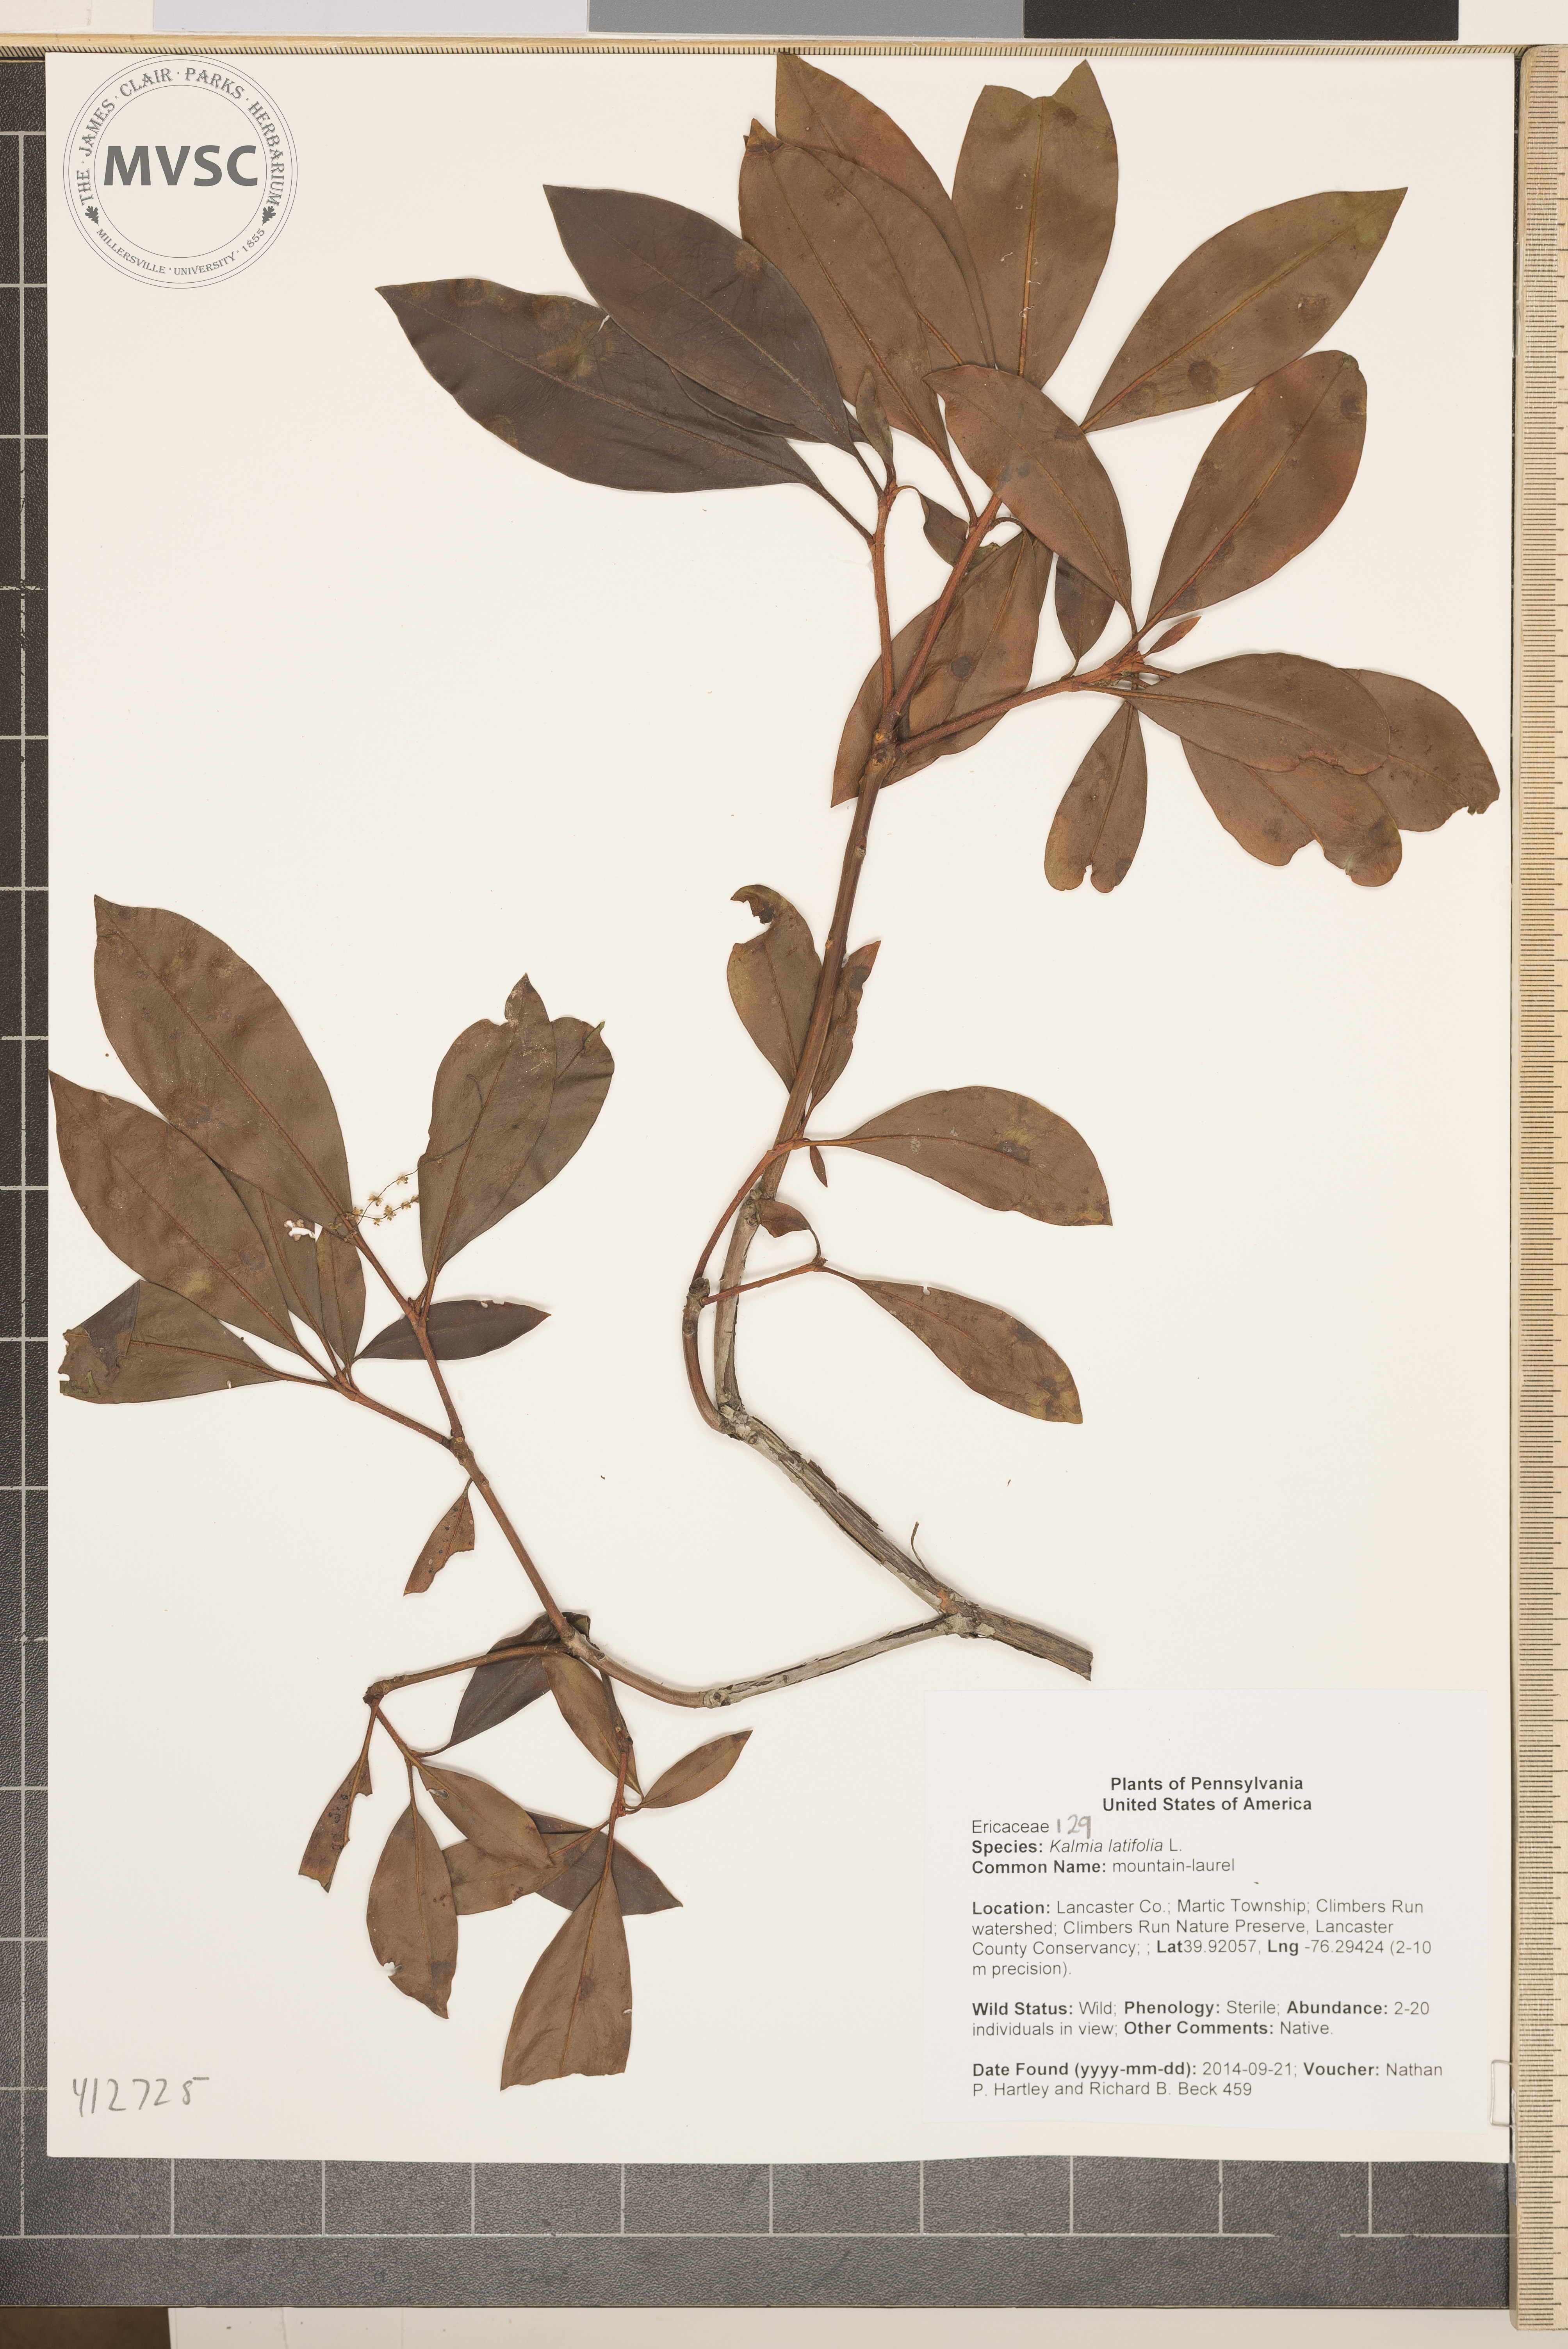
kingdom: Plantae
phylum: Tracheophyta
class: Magnoliopsida
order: Ericales
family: Ericaceae
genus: Kalmia
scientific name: Kalmia latifolia
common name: mountain-laurel
